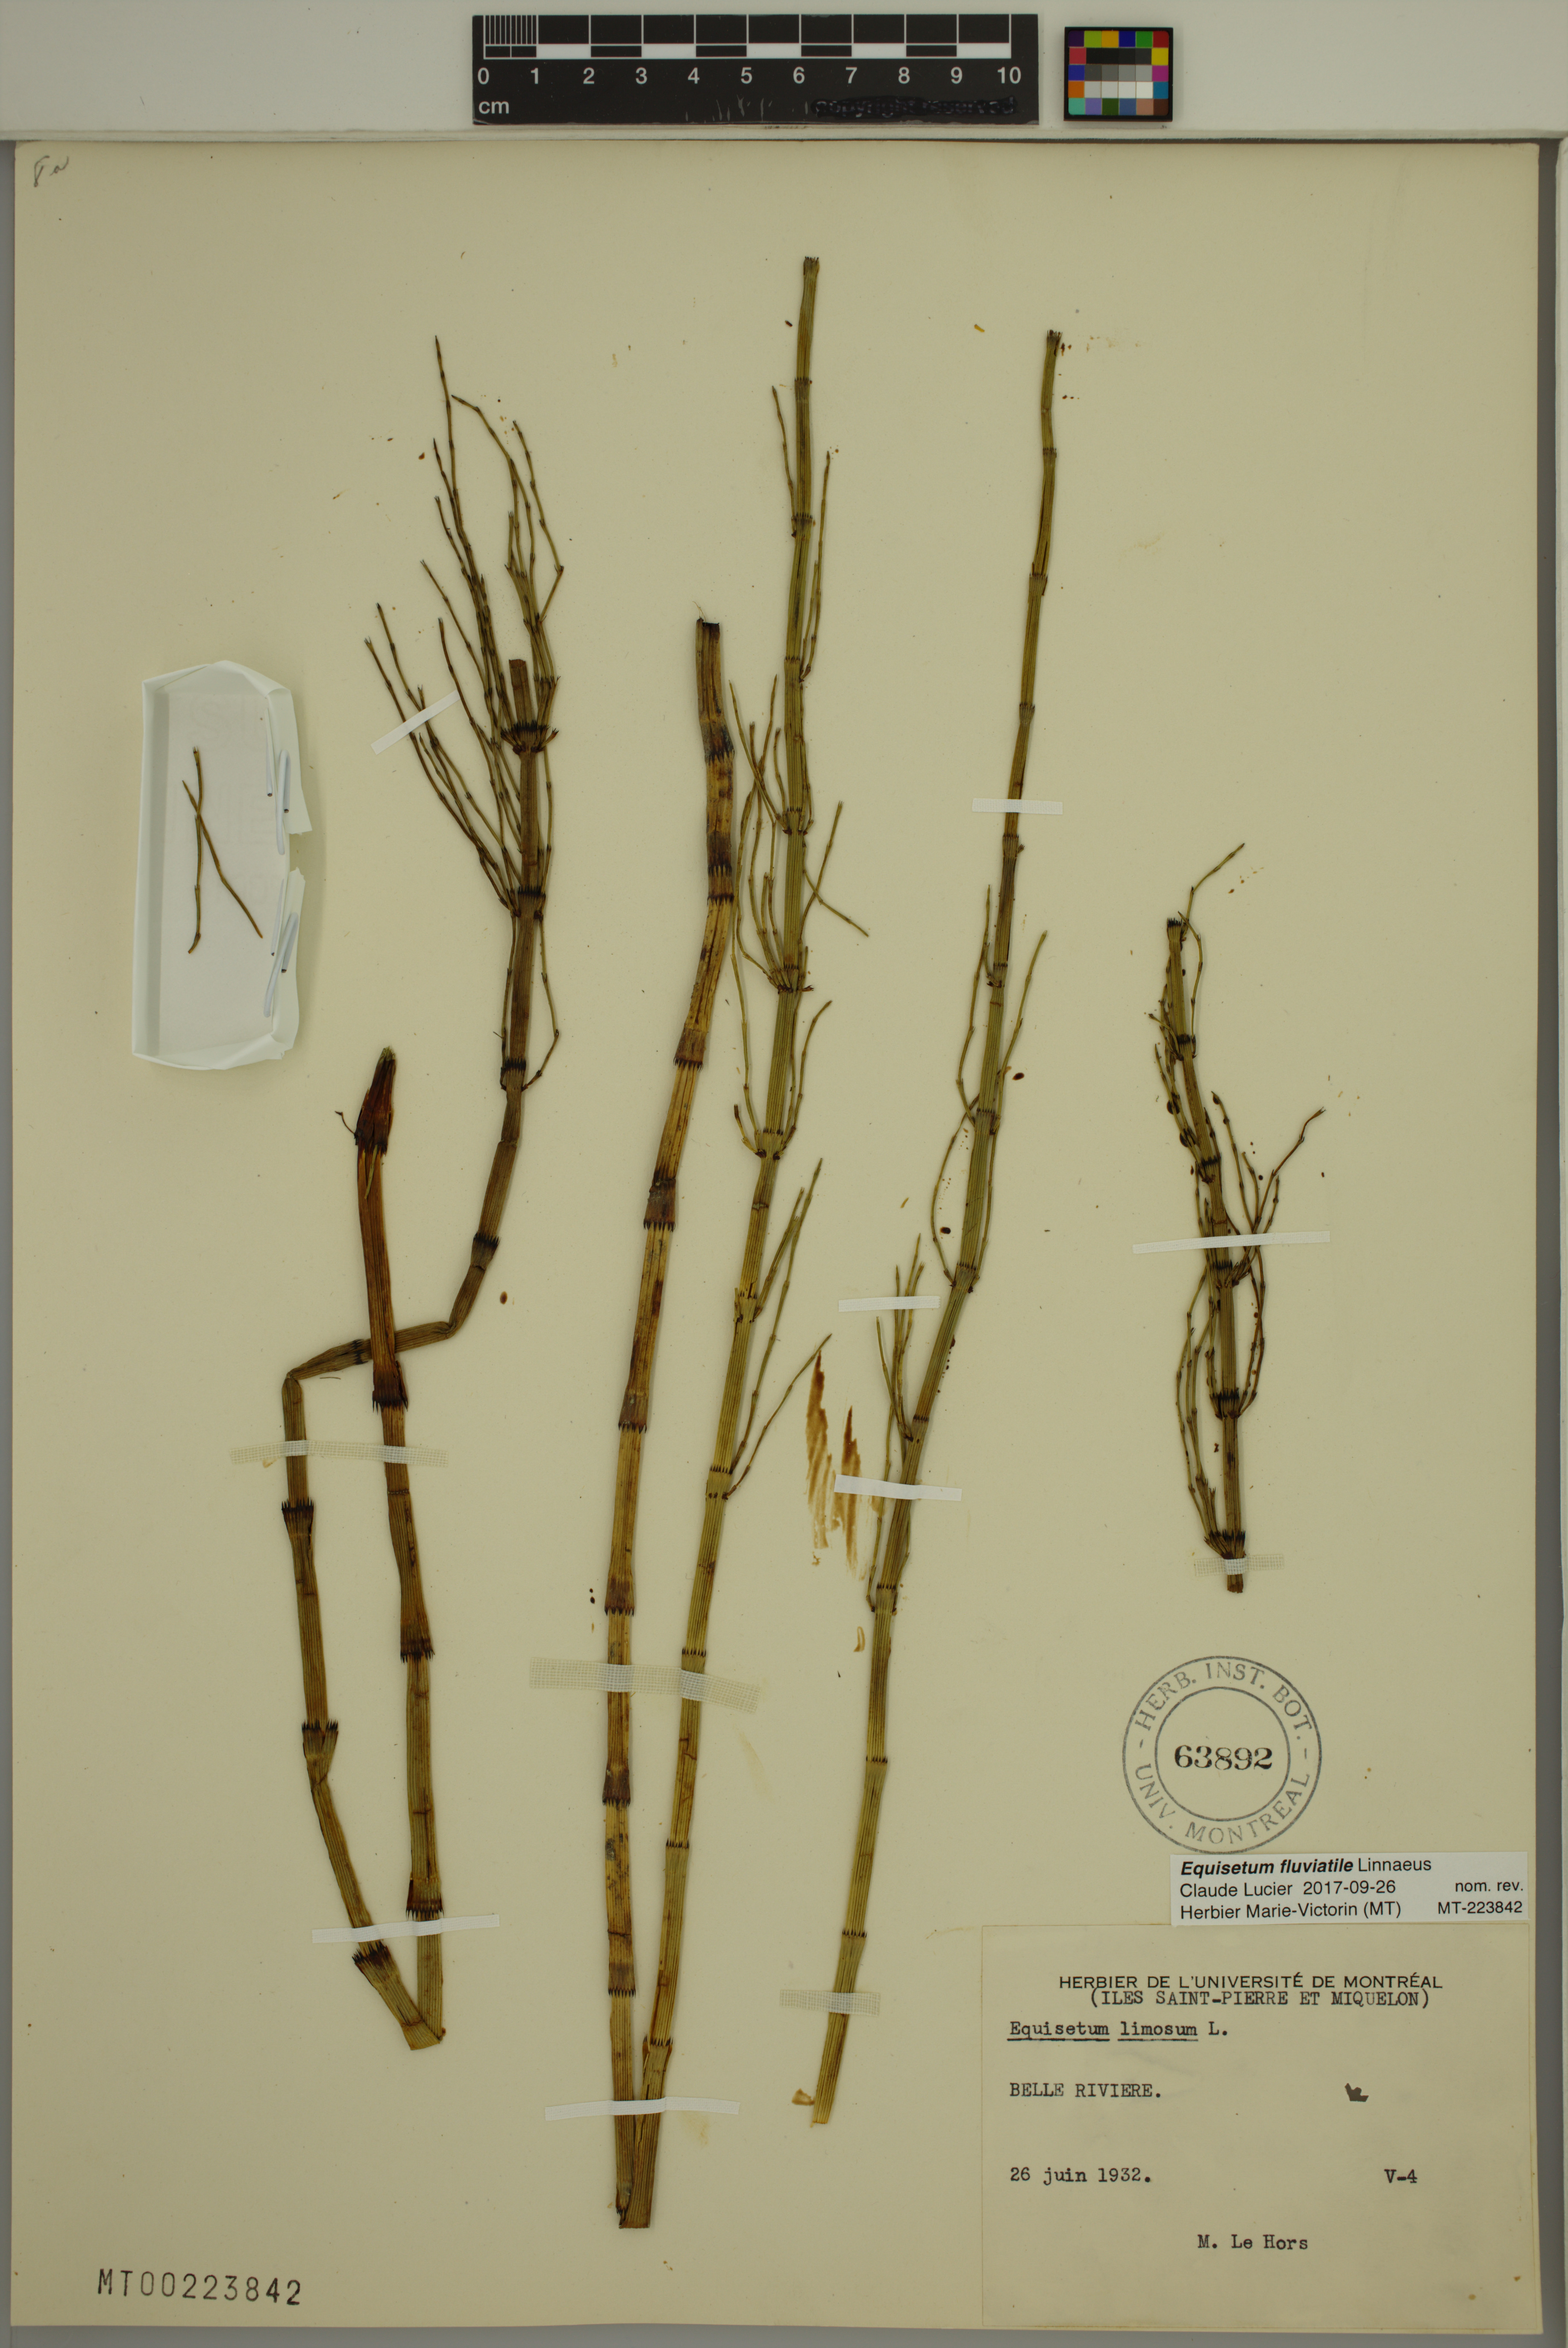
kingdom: Plantae
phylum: Tracheophyta
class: Polypodiopsida
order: Equisetales
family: Equisetaceae
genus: Equisetum
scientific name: Equisetum fluviatile
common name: Water horsetail
